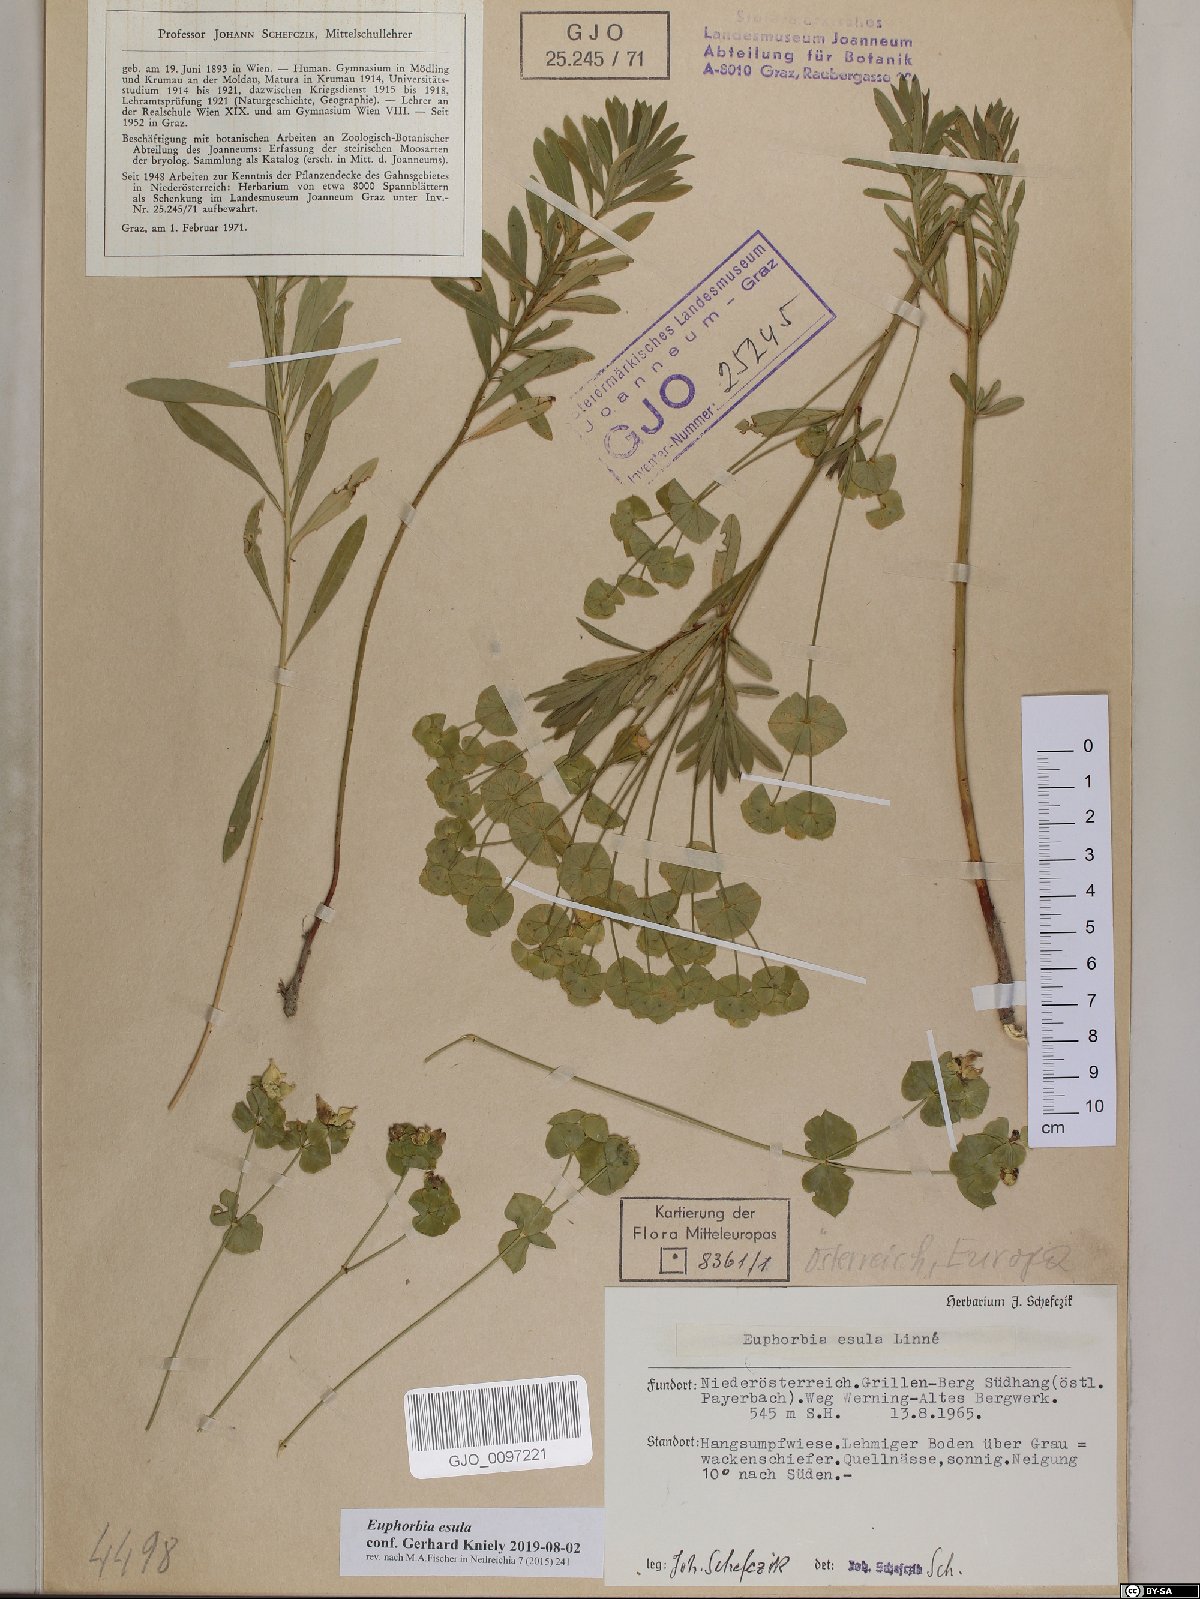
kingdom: Plantae
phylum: Tracheophyta
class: Magnoliopsida
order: Malpighiales
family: Euphorbiaceae
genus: Euphorbia
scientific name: Euphorbia esula
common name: Leafy spurge
